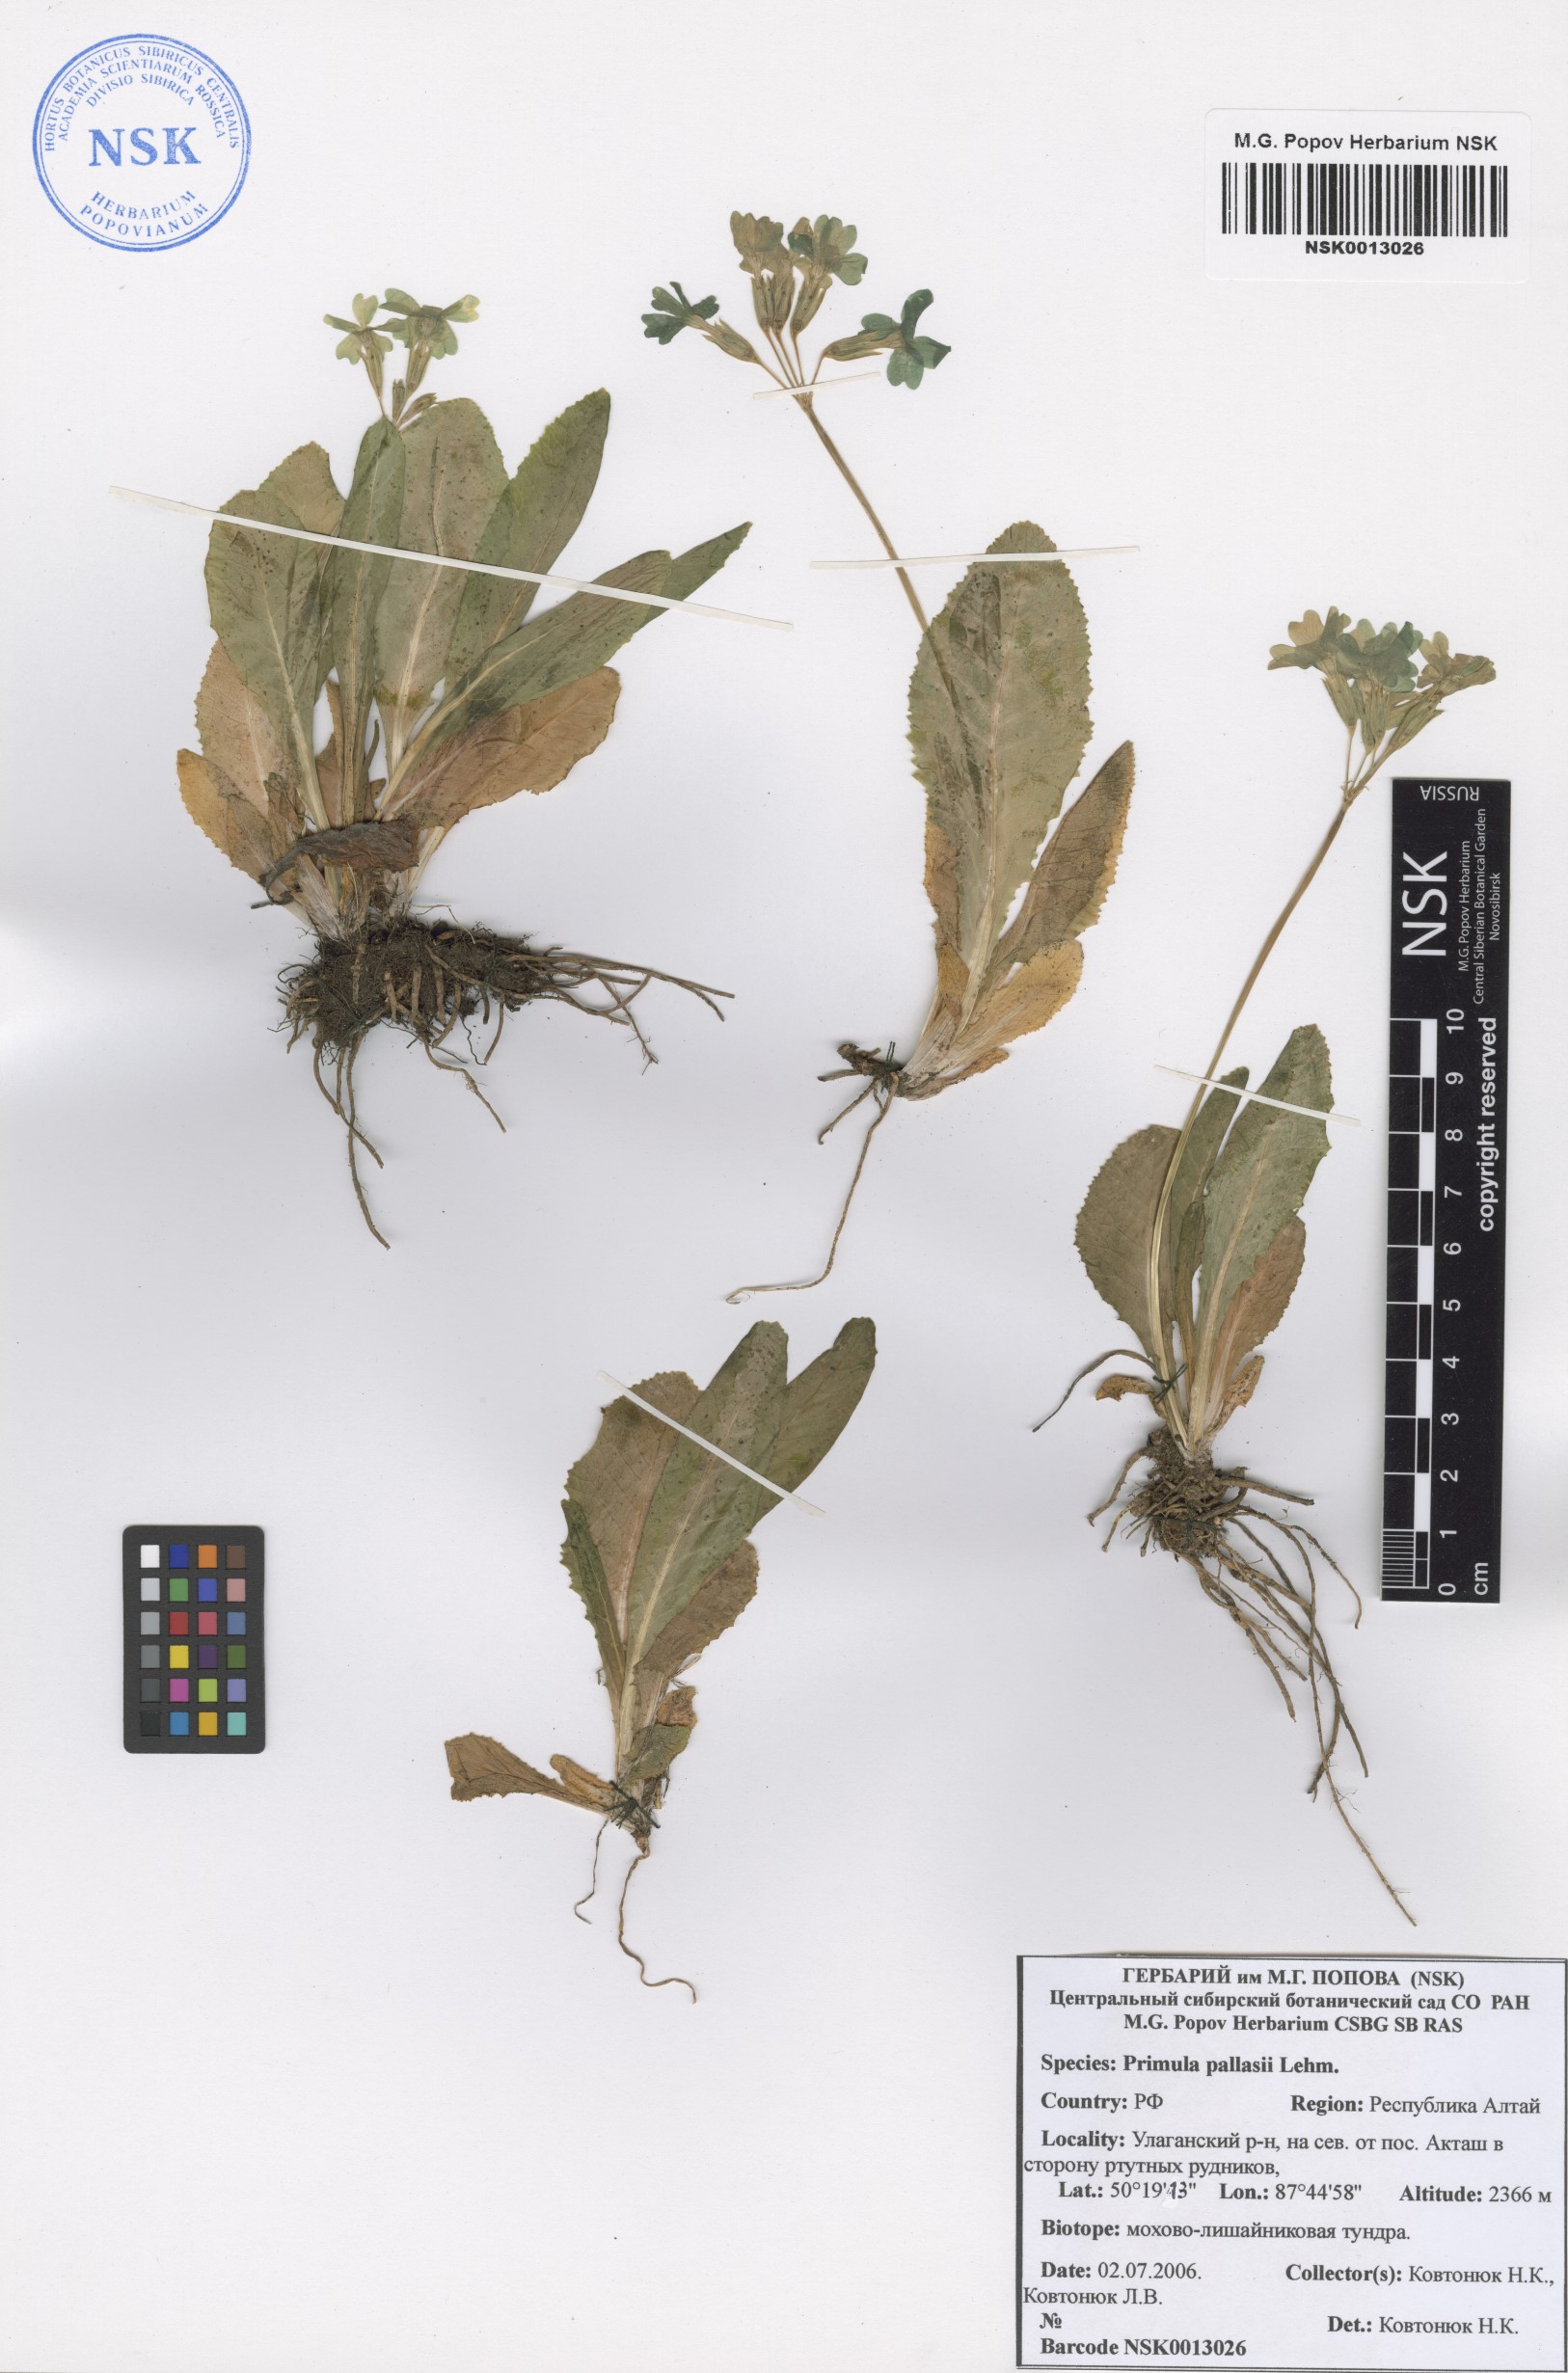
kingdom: Plantae
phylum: Tracheophyta
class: Magnoliopsida
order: Ericales
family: Primulaceae
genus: Primula
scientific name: Primula elatior
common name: Oxlip
